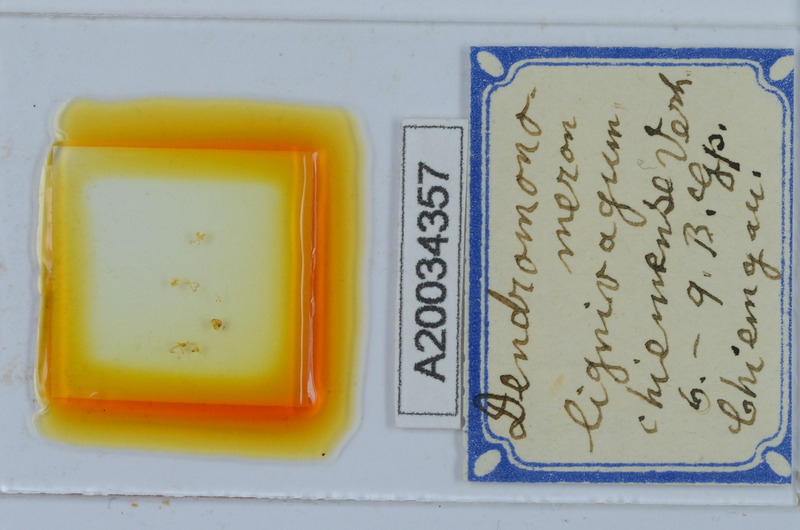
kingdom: Animalia
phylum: Arthropoda
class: Diplopoda
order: Chordeumatida
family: Attemsiidae
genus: Dendromonomeron
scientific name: Dendromonomeron lignivagum
